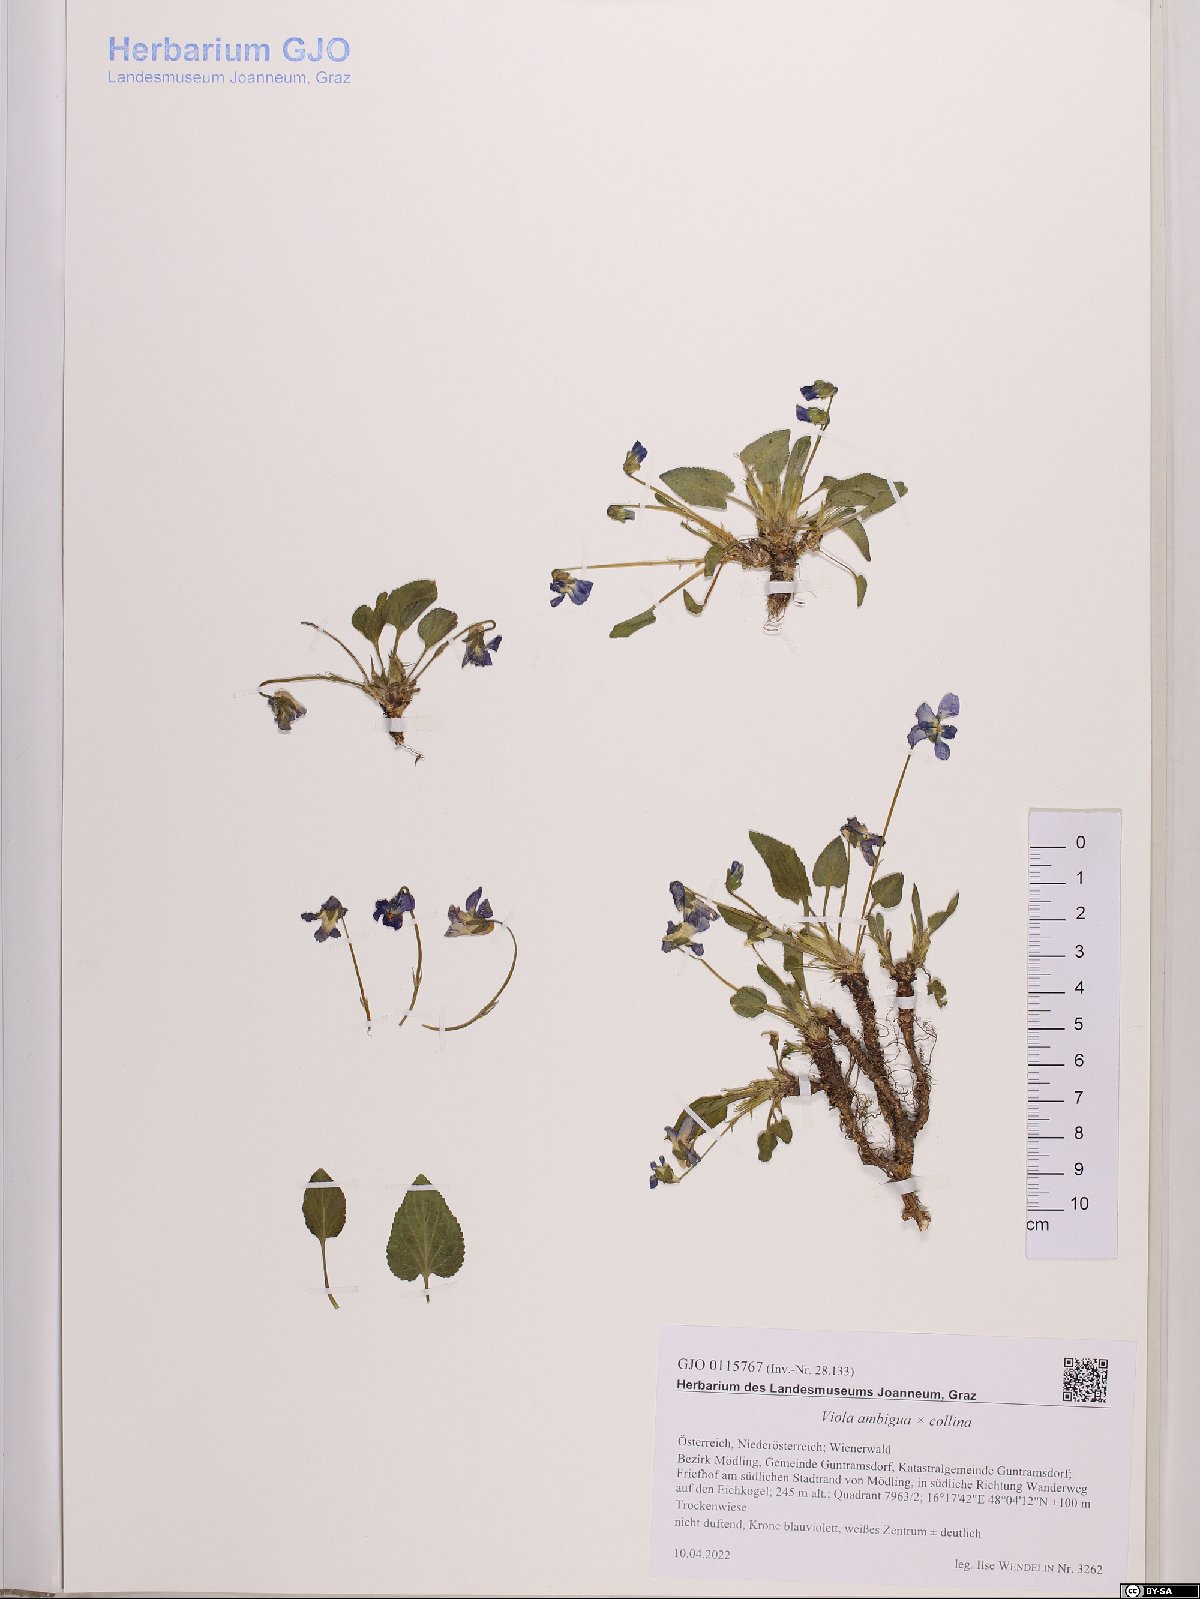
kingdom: Plantae
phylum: Tracheophyta
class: Magnoliopsida
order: Malpighiales
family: Violaceae
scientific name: Violaceae
